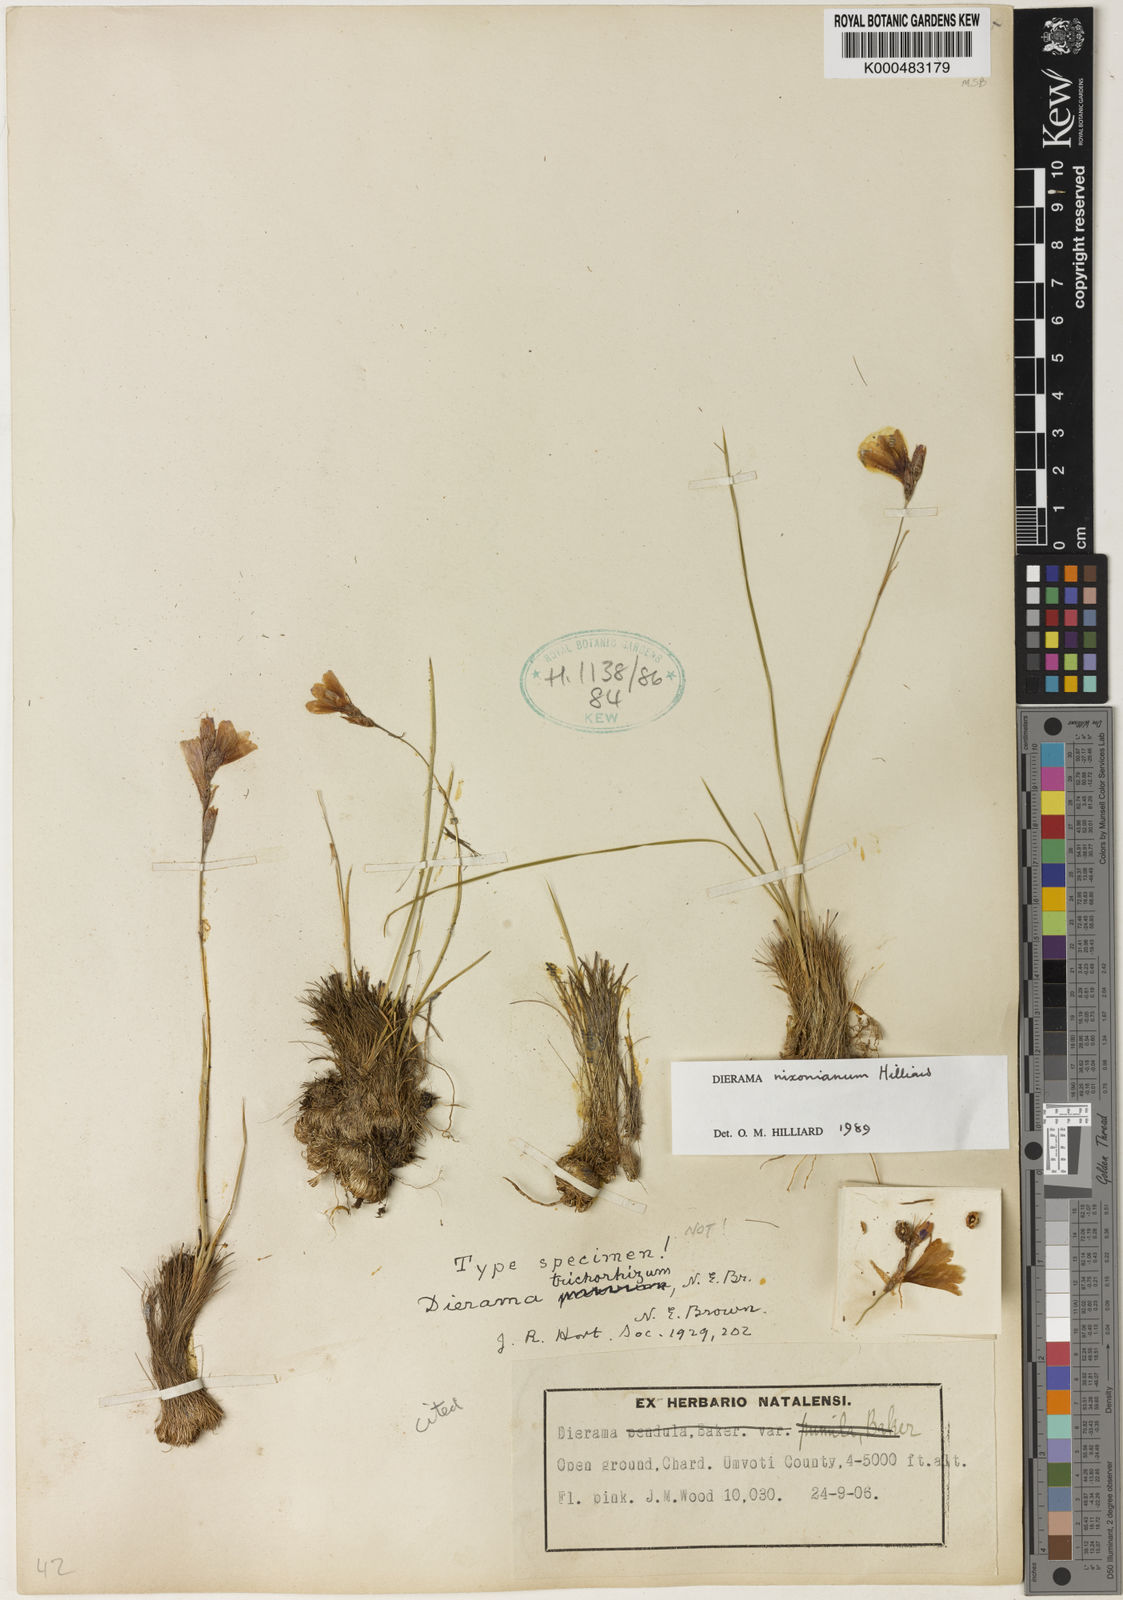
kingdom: Plantae
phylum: Tracheophyta
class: Liliopsida
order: Asparagales
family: Iridaceae
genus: Dierama
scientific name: Dierama nixonianum
